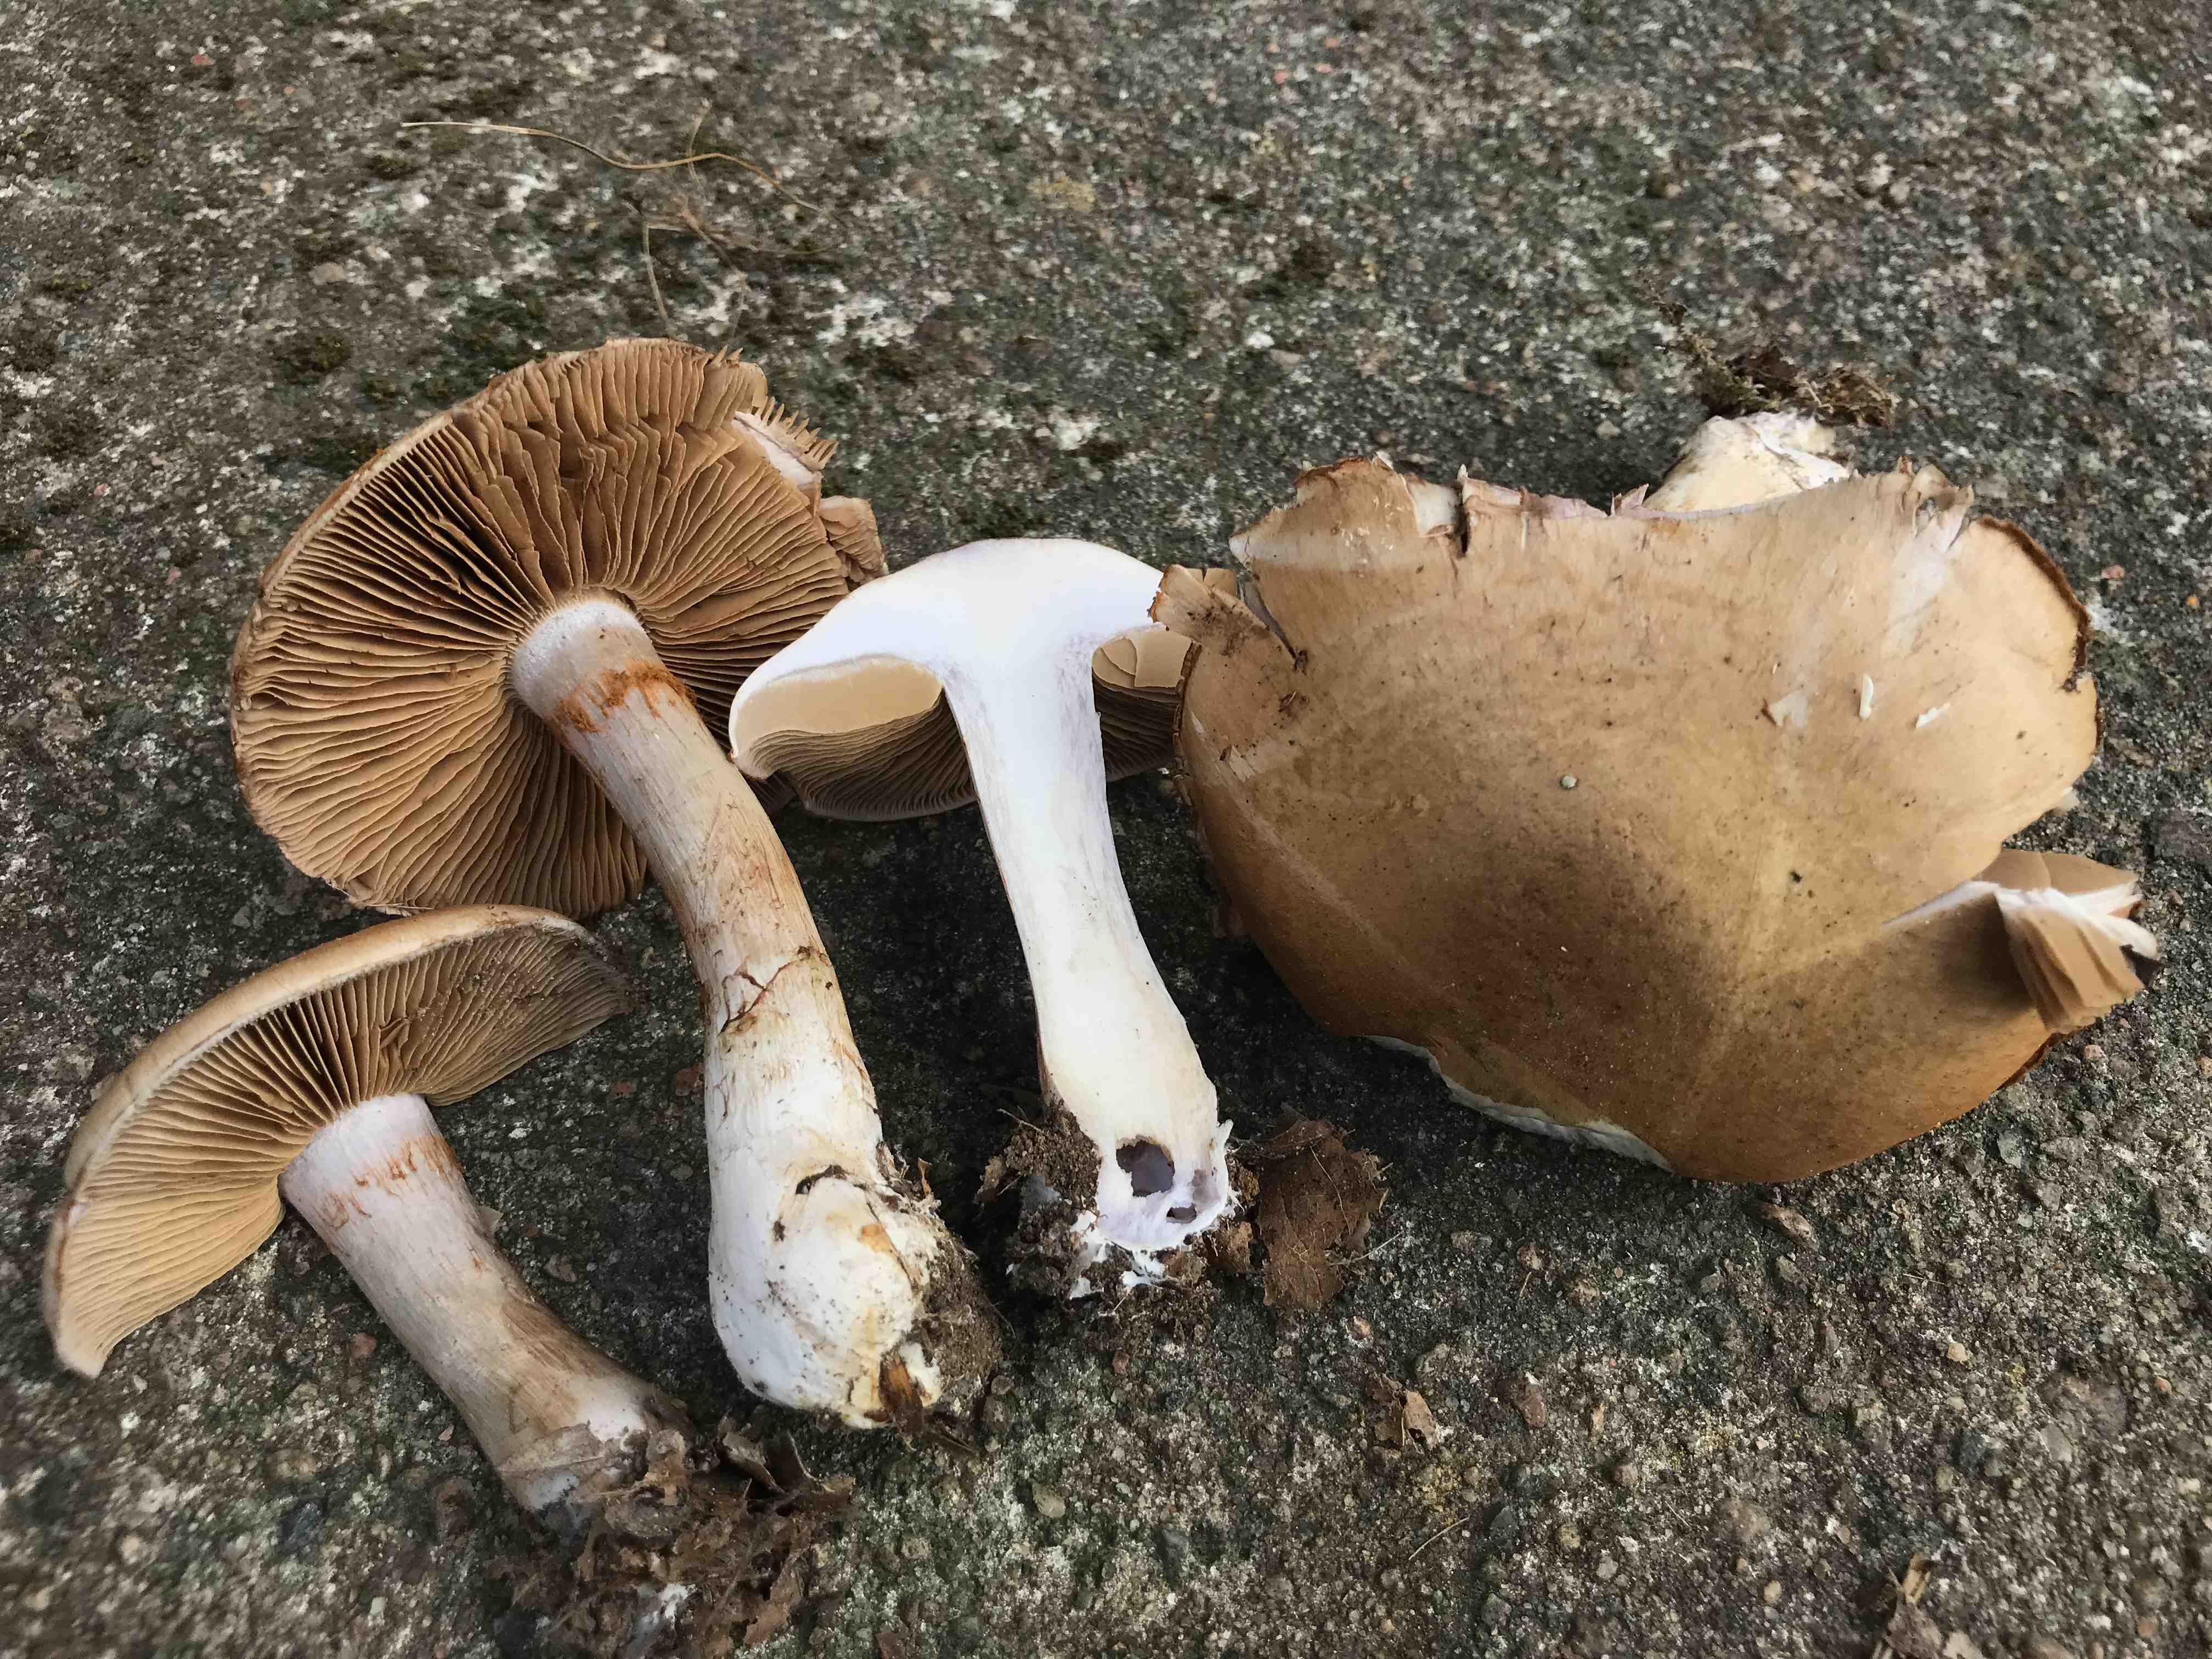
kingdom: Fungi
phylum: Basidiomycota
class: Agaricomycetes
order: Agaricales
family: Cortinariaceae
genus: Cortinarius
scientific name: Cortinarius
